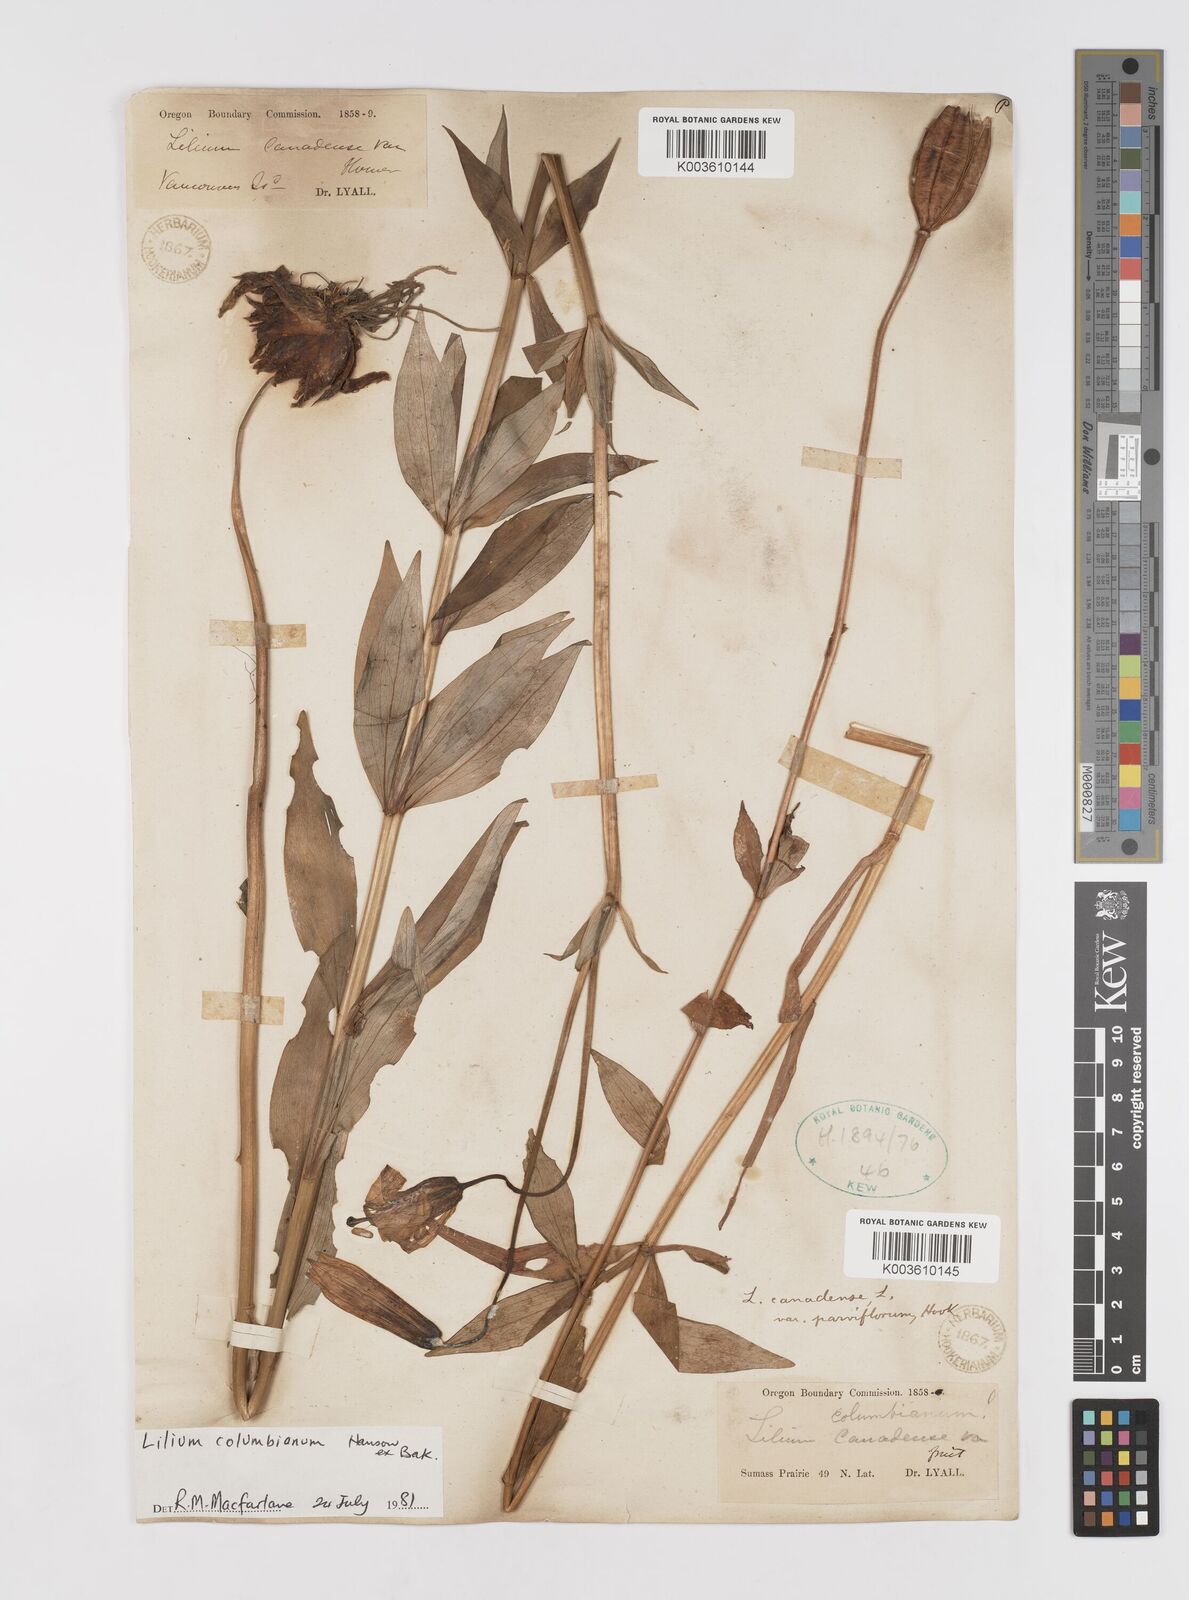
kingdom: Plantae
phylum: Tracheophyta
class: Liliopsida
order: Liliales
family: Liliaceae
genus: Lilium
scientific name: Lilium columbianum
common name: Columbia lily
